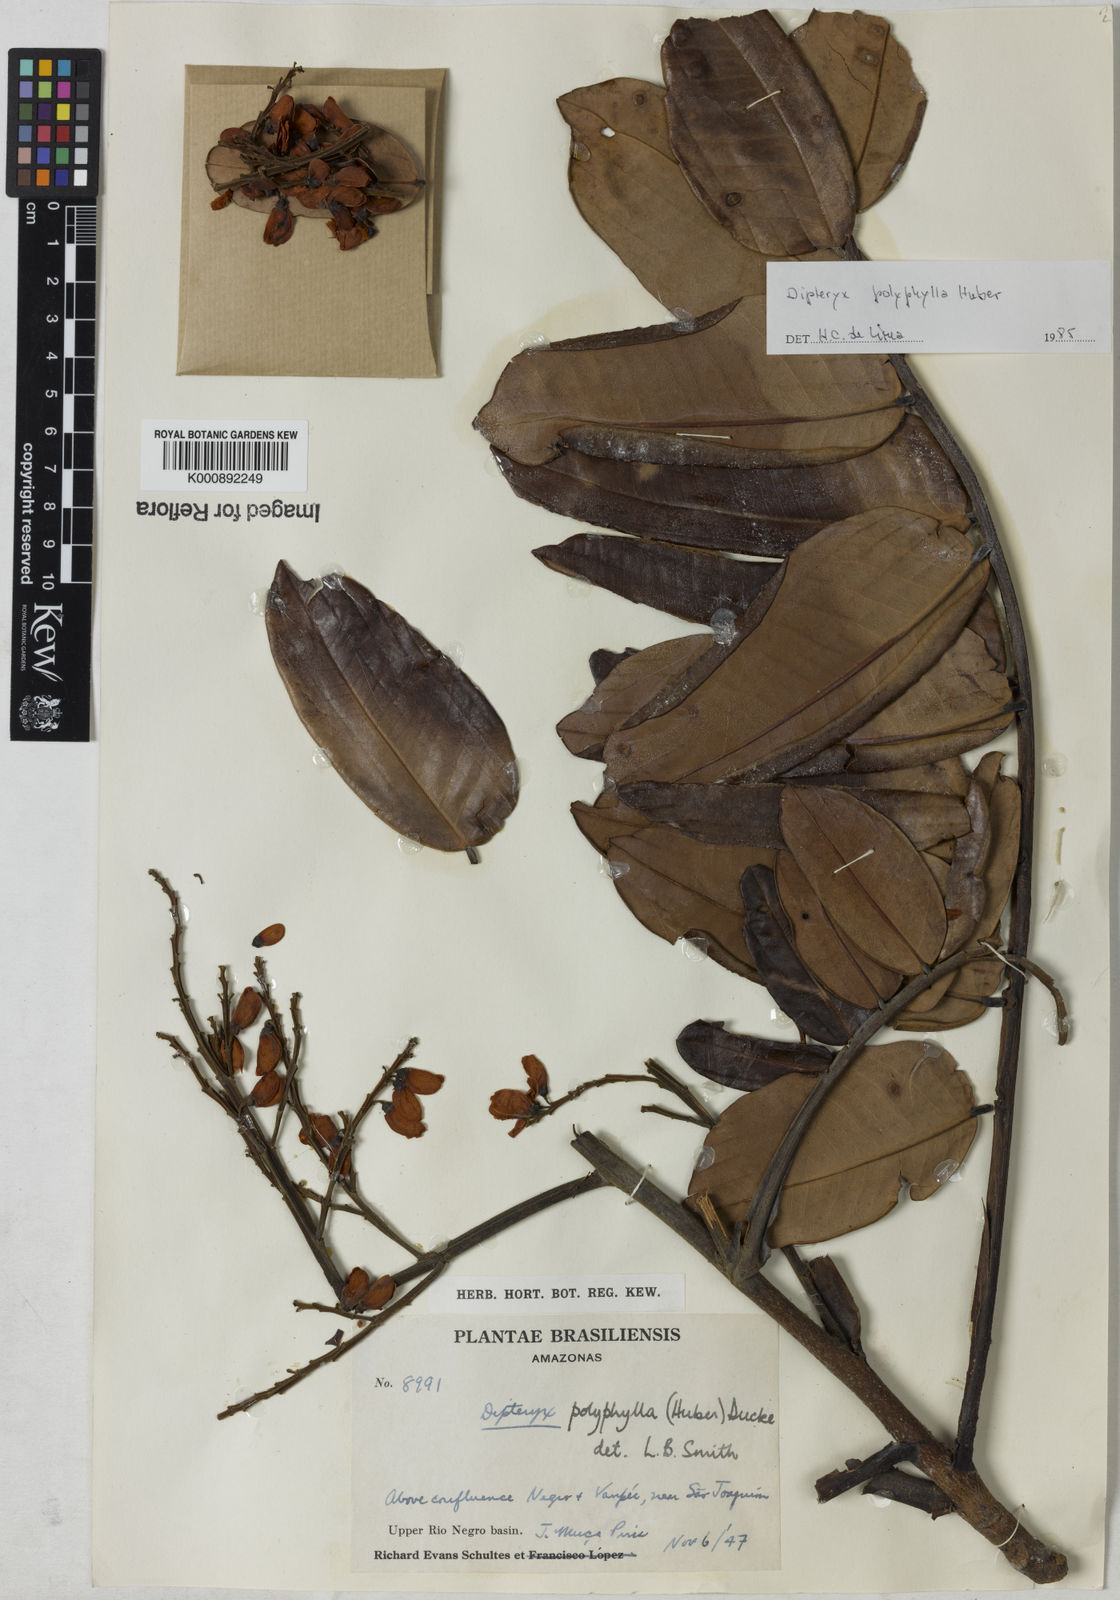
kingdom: Plantae
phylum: Tracheophyta
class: Magnoliopsida
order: Fabales
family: Fabaceae
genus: Dipteryx
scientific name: Dipteryx polyphylla
